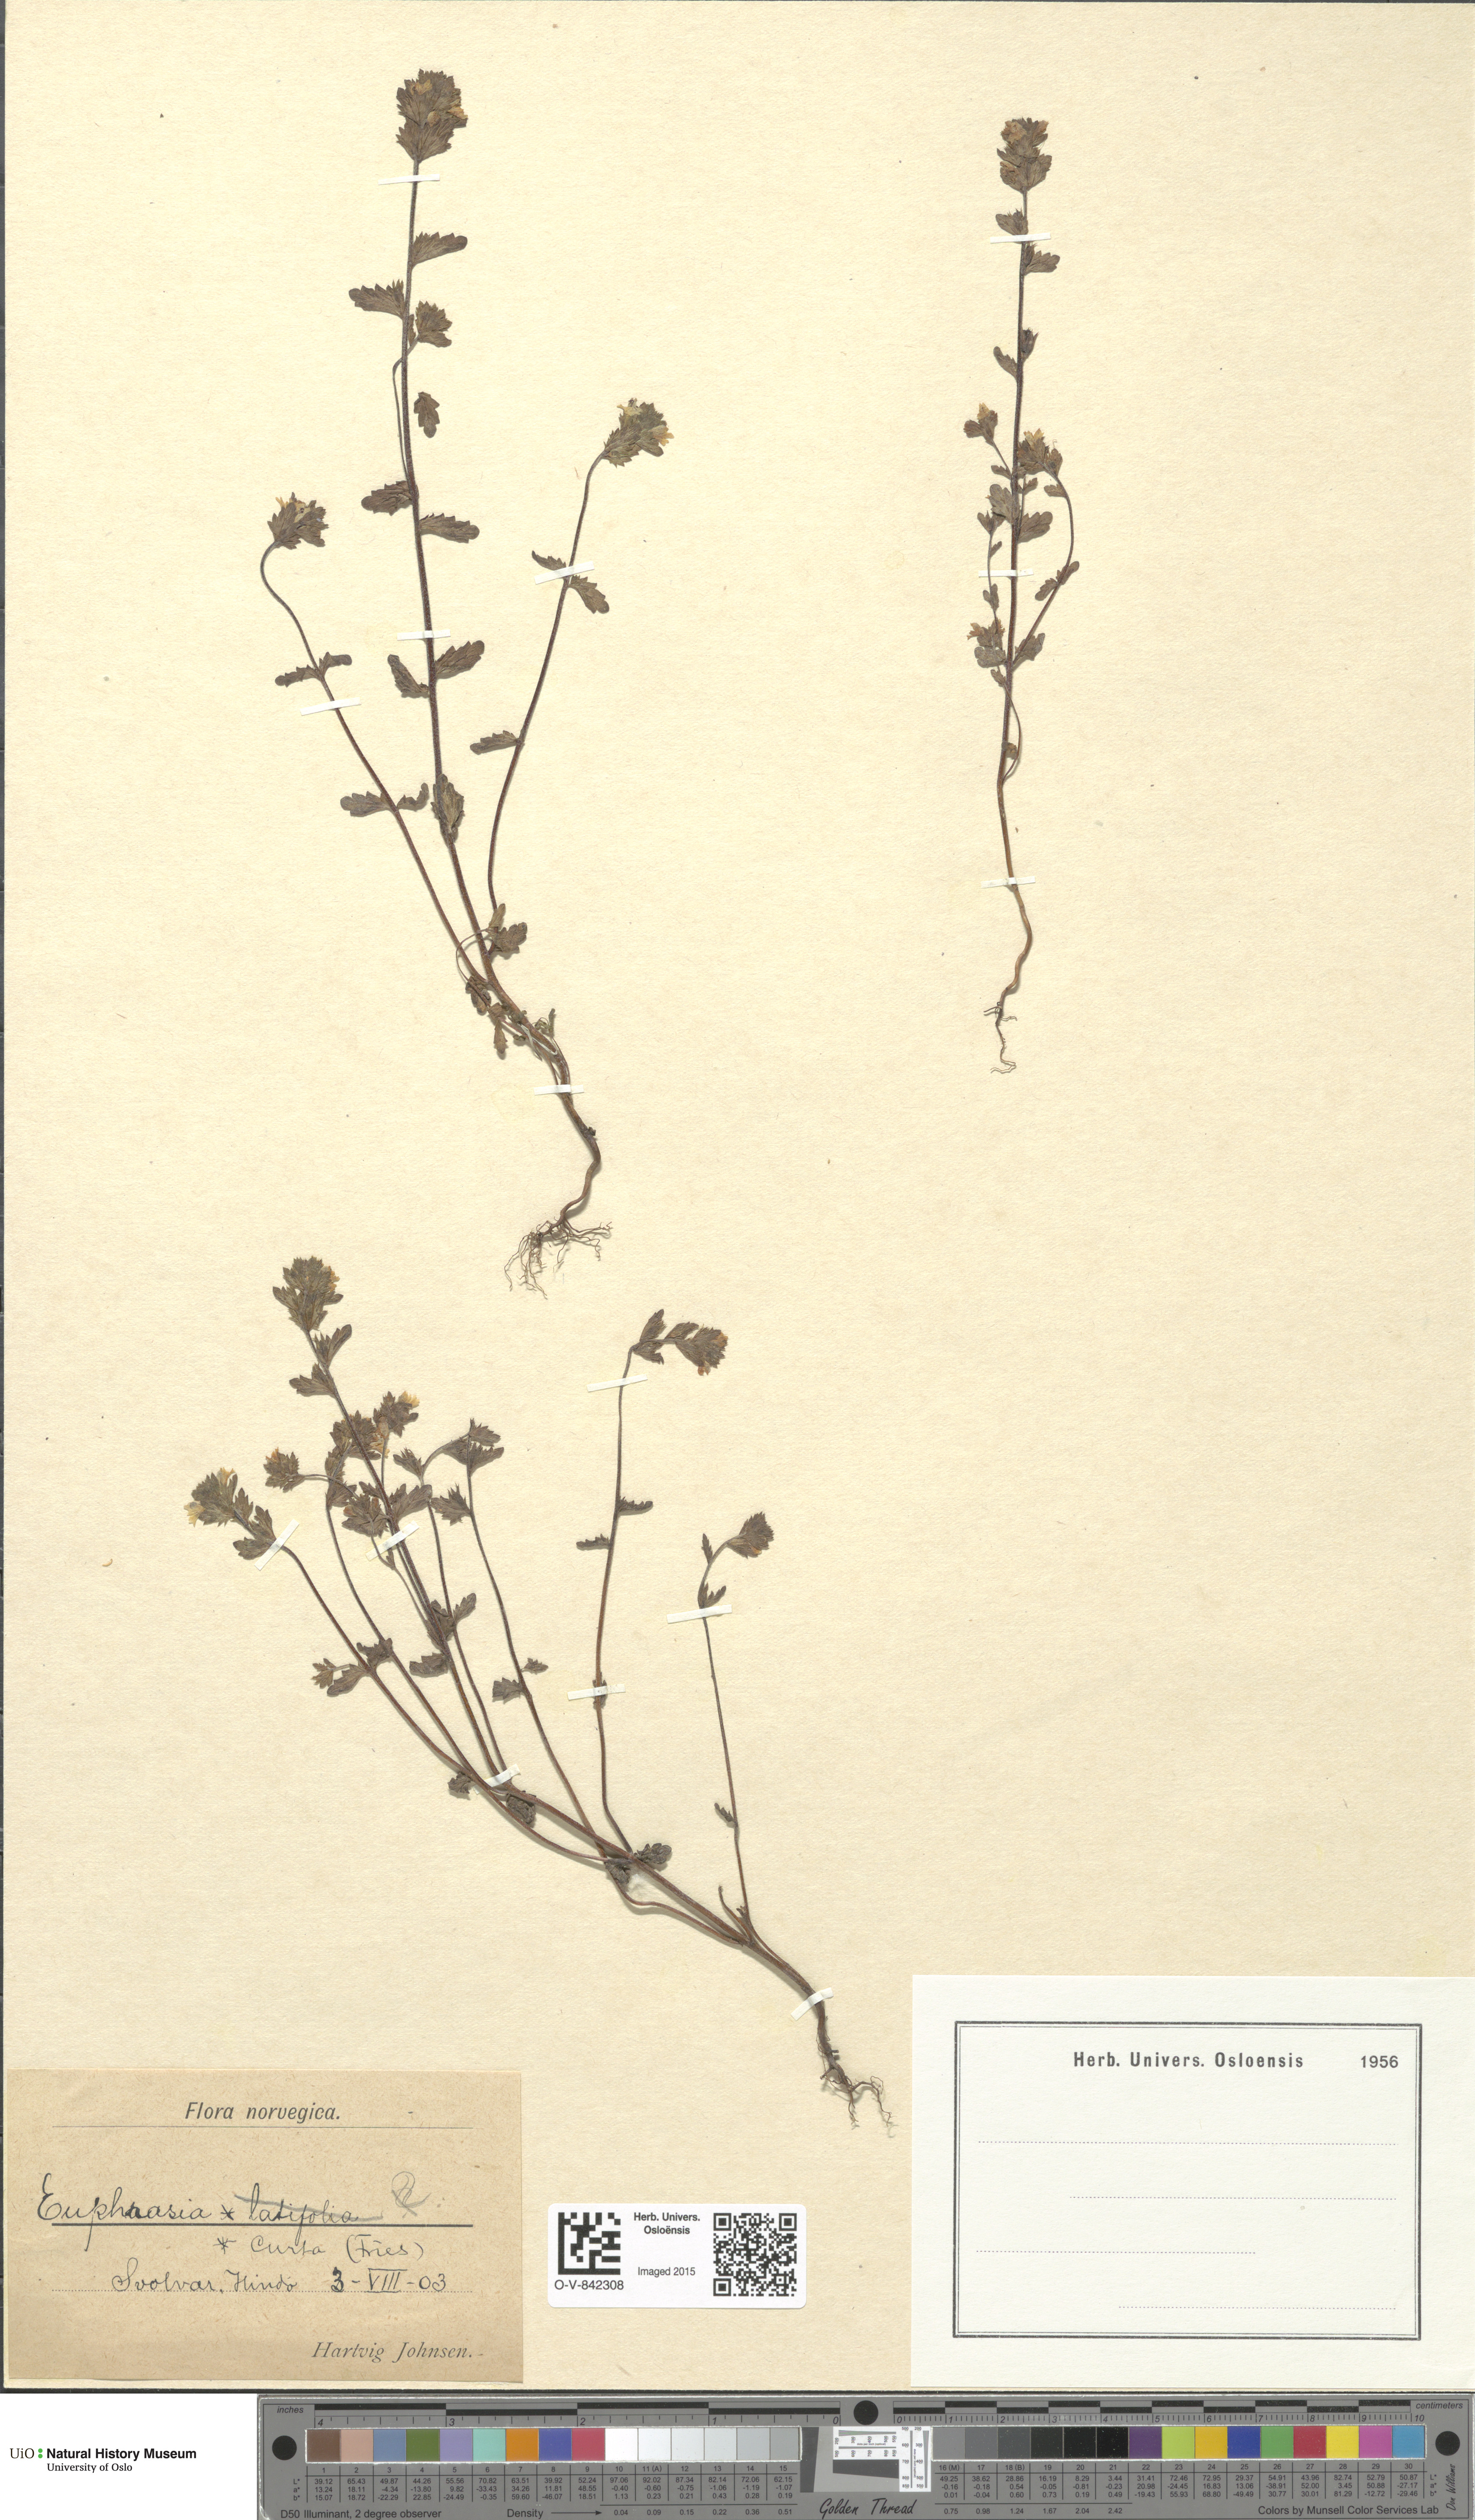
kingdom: Plantae
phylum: Tracheophyta
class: Magnoliopsida
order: Lamiales
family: Orobanchaceae
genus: Euphrasia
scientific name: Euphrasia micrantha
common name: Northern eyebright
